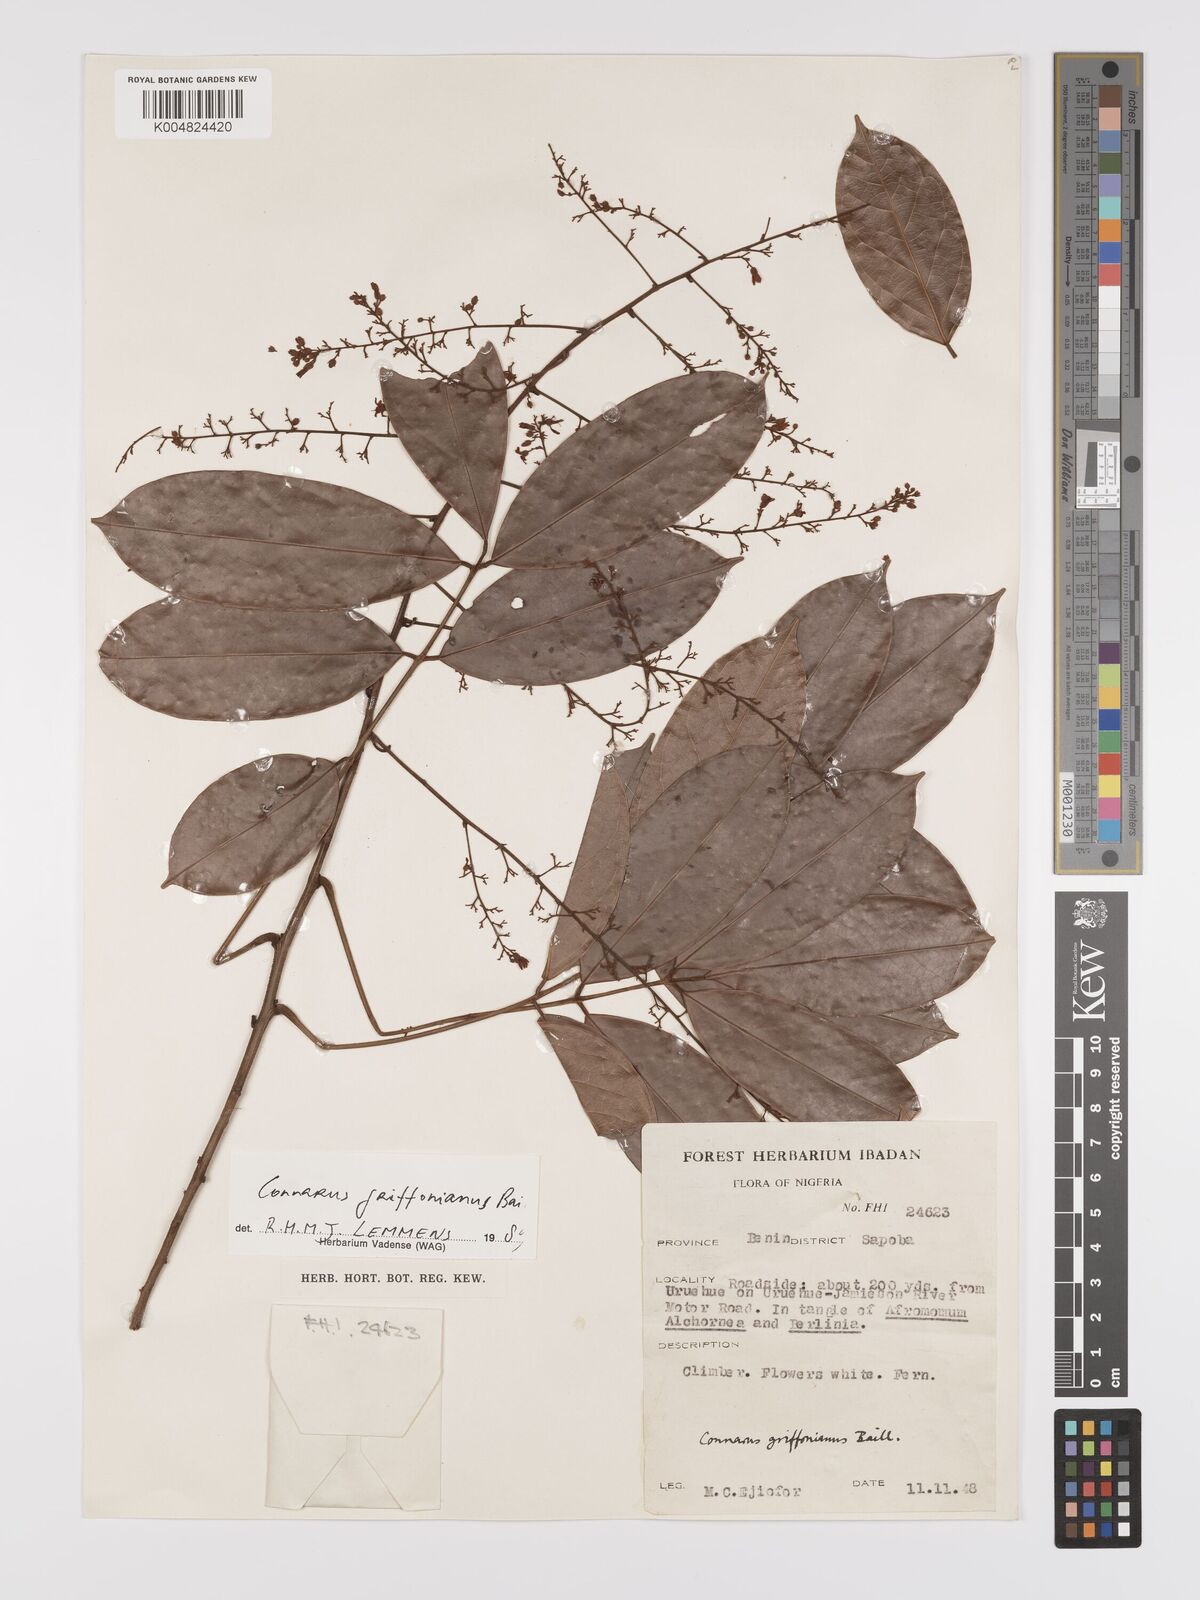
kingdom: Plantae
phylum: Tracheophyta
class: Magnoliopsida
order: Oxalidales
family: Connaraceae
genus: Connarus
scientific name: Connarus griffonianus
